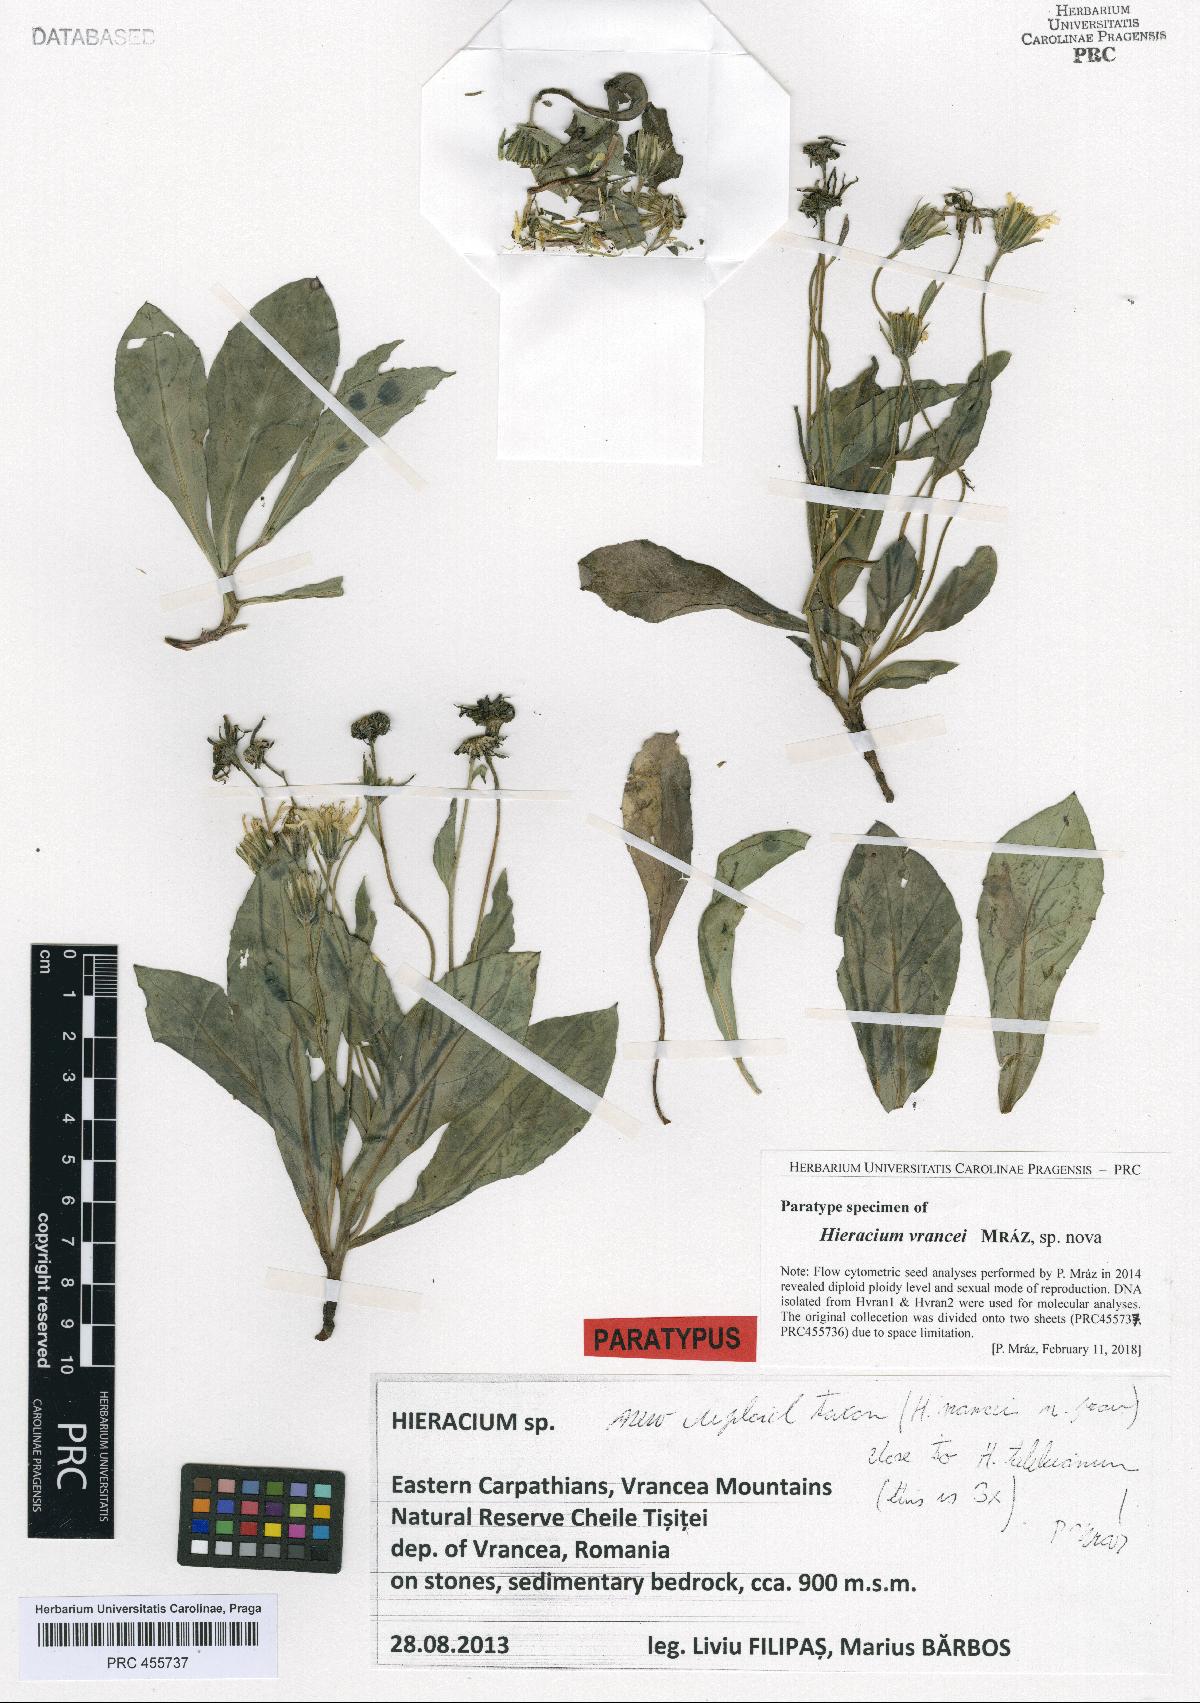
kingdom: Plantae
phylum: Tracheophyta
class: Magnoliopsida
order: Asterales
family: Asteraceae
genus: Hieracium
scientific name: Hieracium
